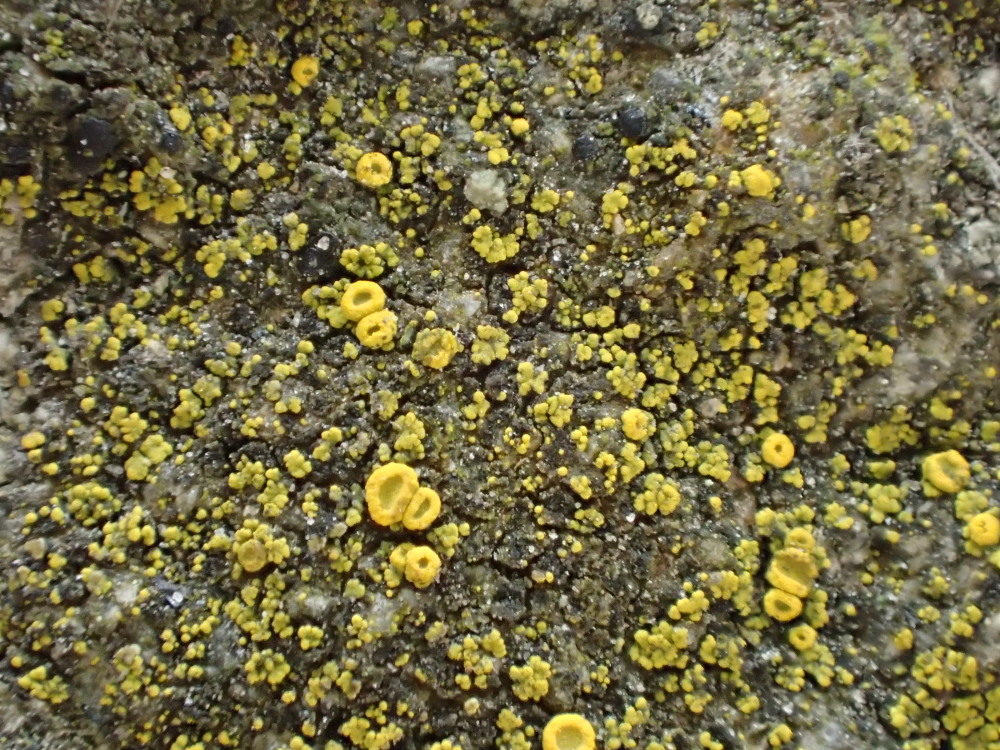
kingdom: Fungi
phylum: Ascomycota
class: Candelariomycetes
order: Candelariales
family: Candelariaceae
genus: Candelariella
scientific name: Candelariella aurella
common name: liden æggeblommelav
